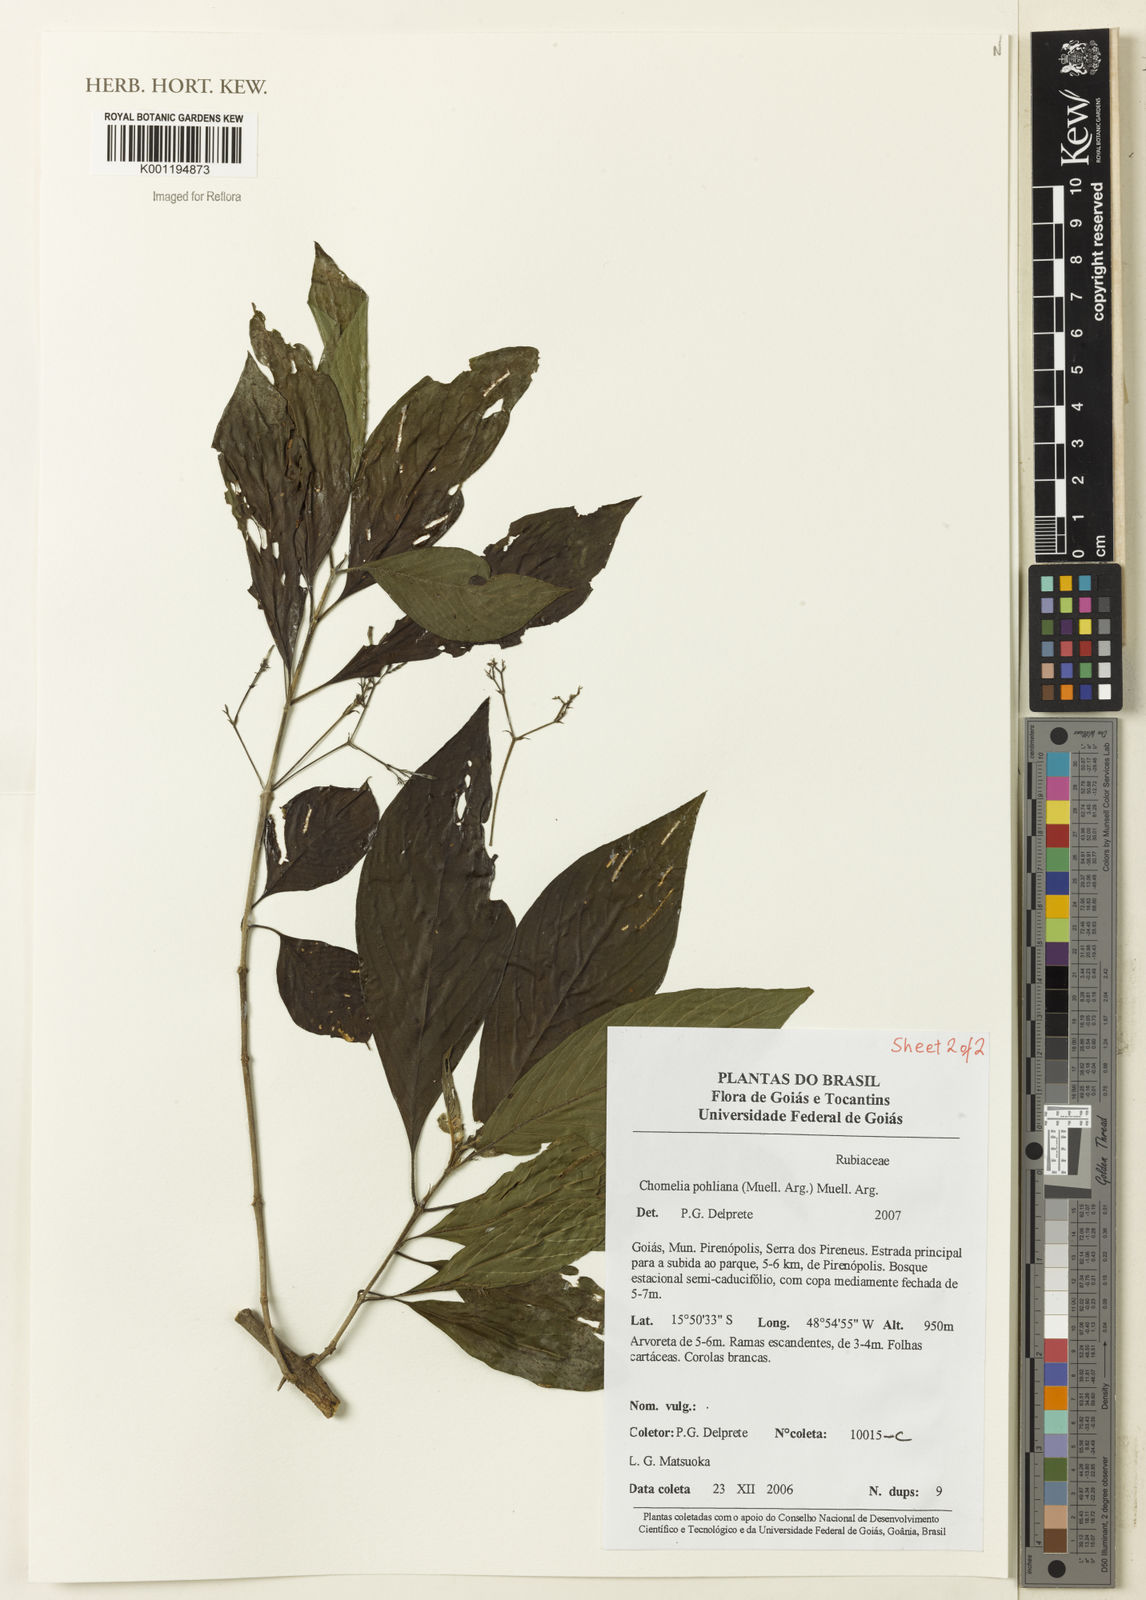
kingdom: Plantae
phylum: Tracheophyta
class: Magnoliopsida
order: Gentianales
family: Rubiaceae
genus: Chomelia
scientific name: Chomelia
